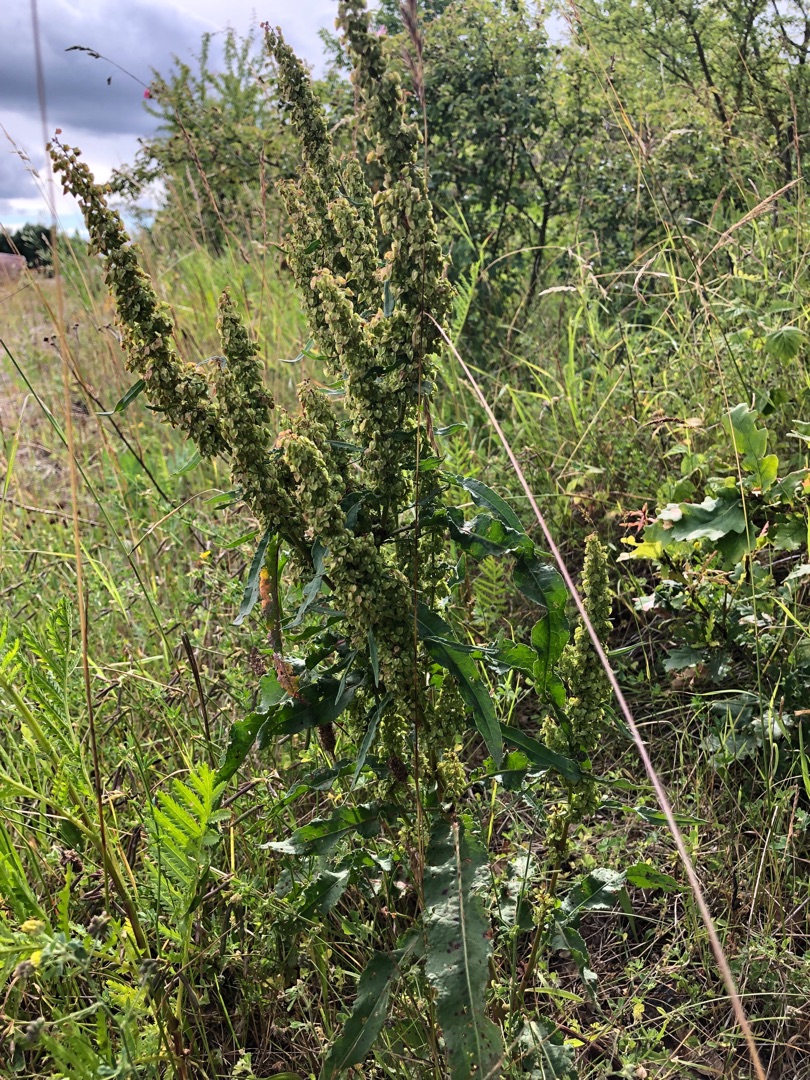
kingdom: Plantae
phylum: Tracheophyta
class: Magnoliopsida
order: Caryophyllales
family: Polygonaceae
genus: Rumex
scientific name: Rumex crispus
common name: Kruset skræppe
